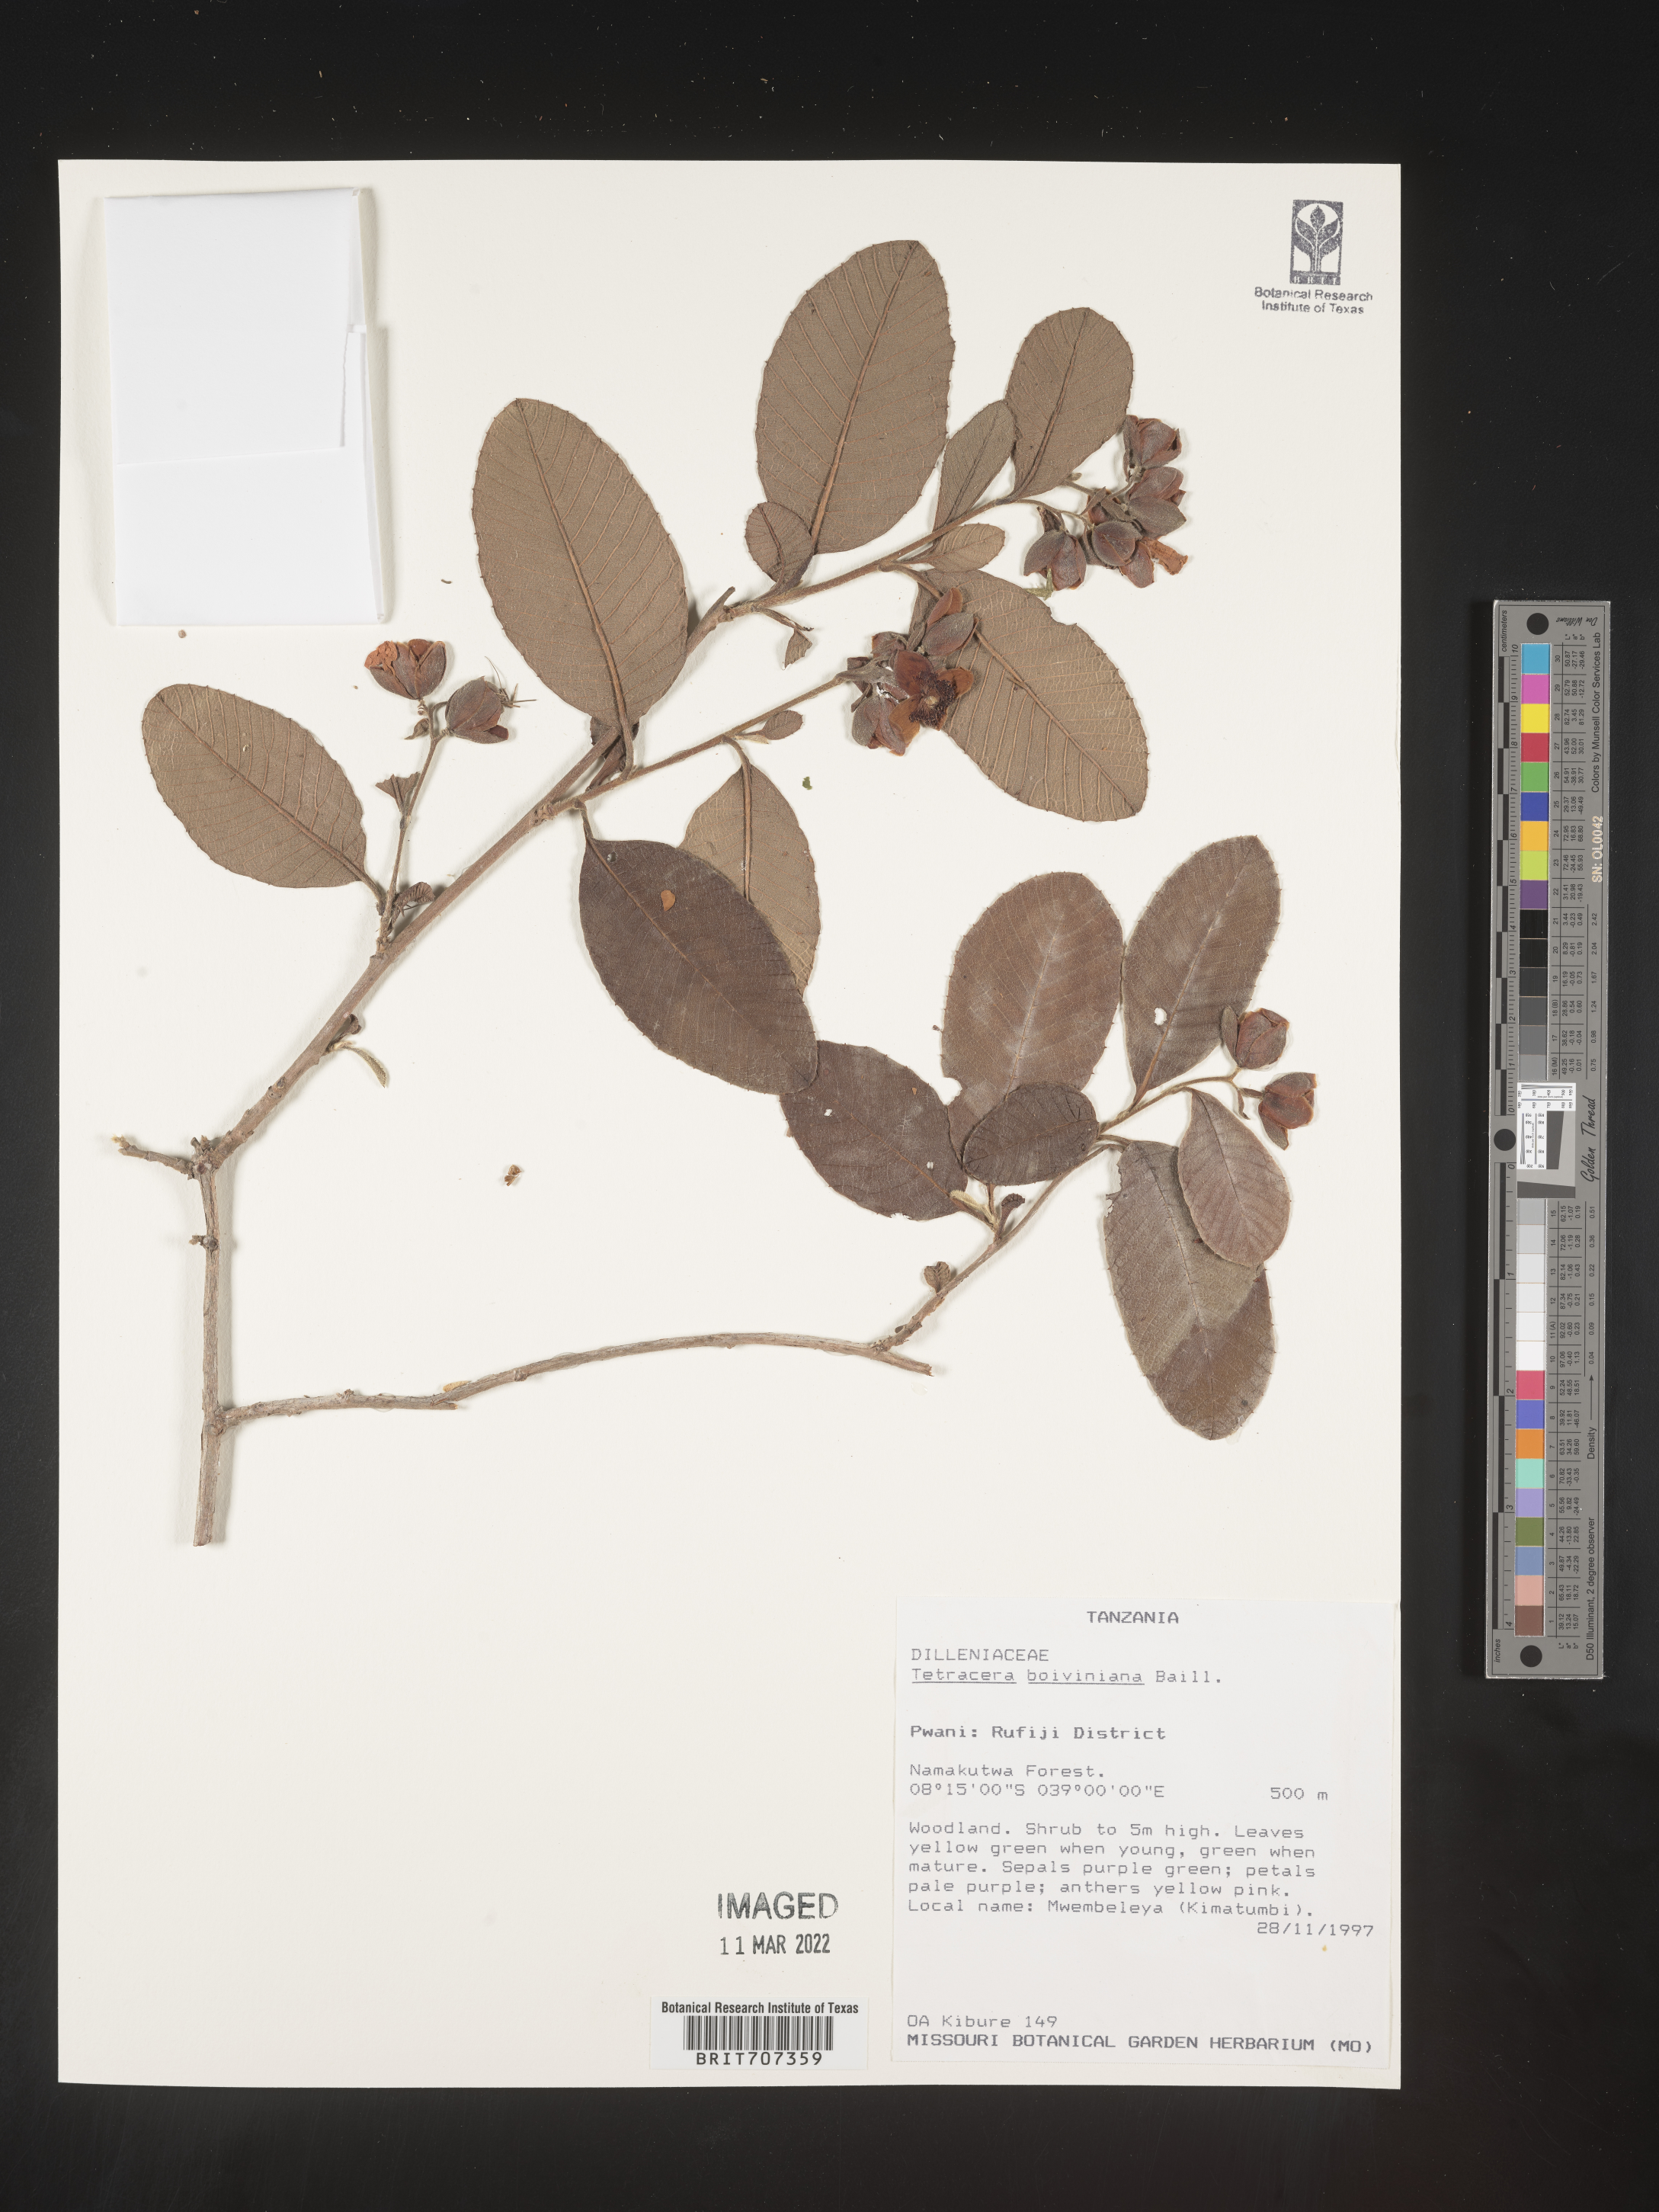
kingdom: Plantae
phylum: Tracheophyta
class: Magnoliopsida
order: Dilleniales
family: Dilleniaceae
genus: Tetracera
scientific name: Tetracera
